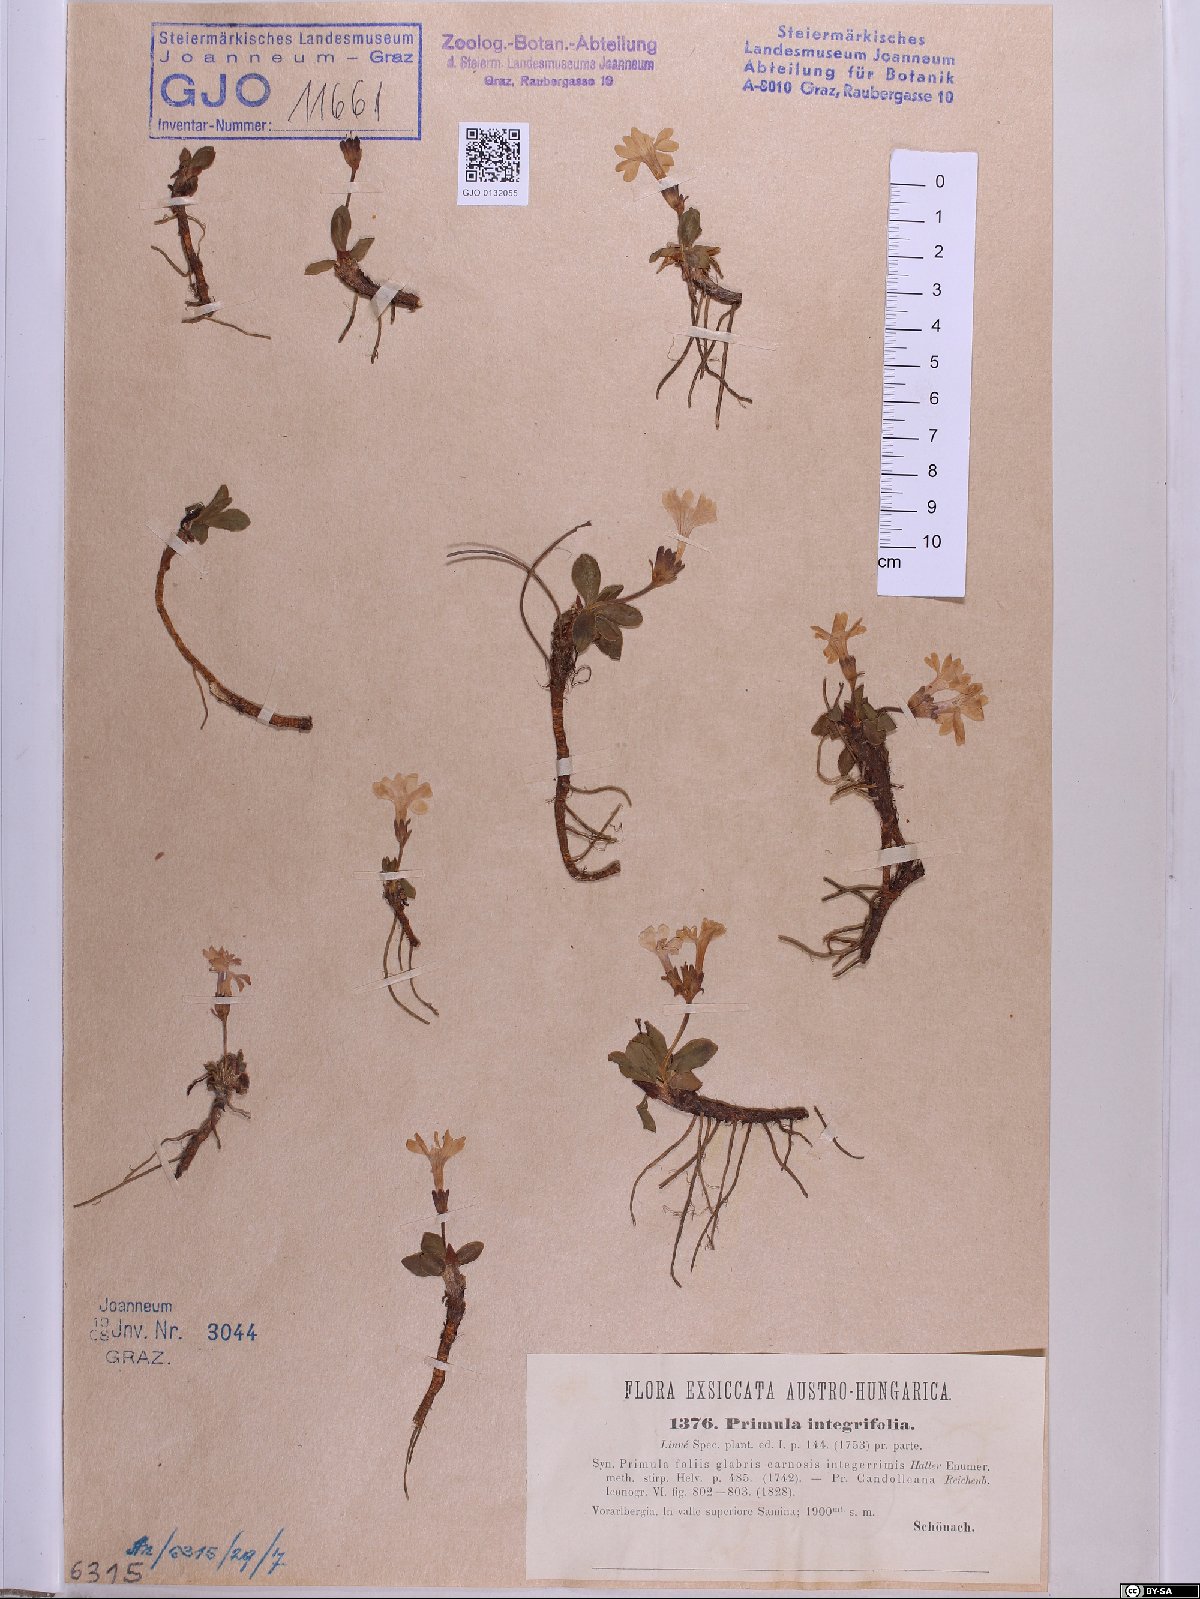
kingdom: Plantae
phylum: Tracheophyta
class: Magnoliopsida
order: Ericales
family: Primulaceae
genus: Primula
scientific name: Primula integrifolia
